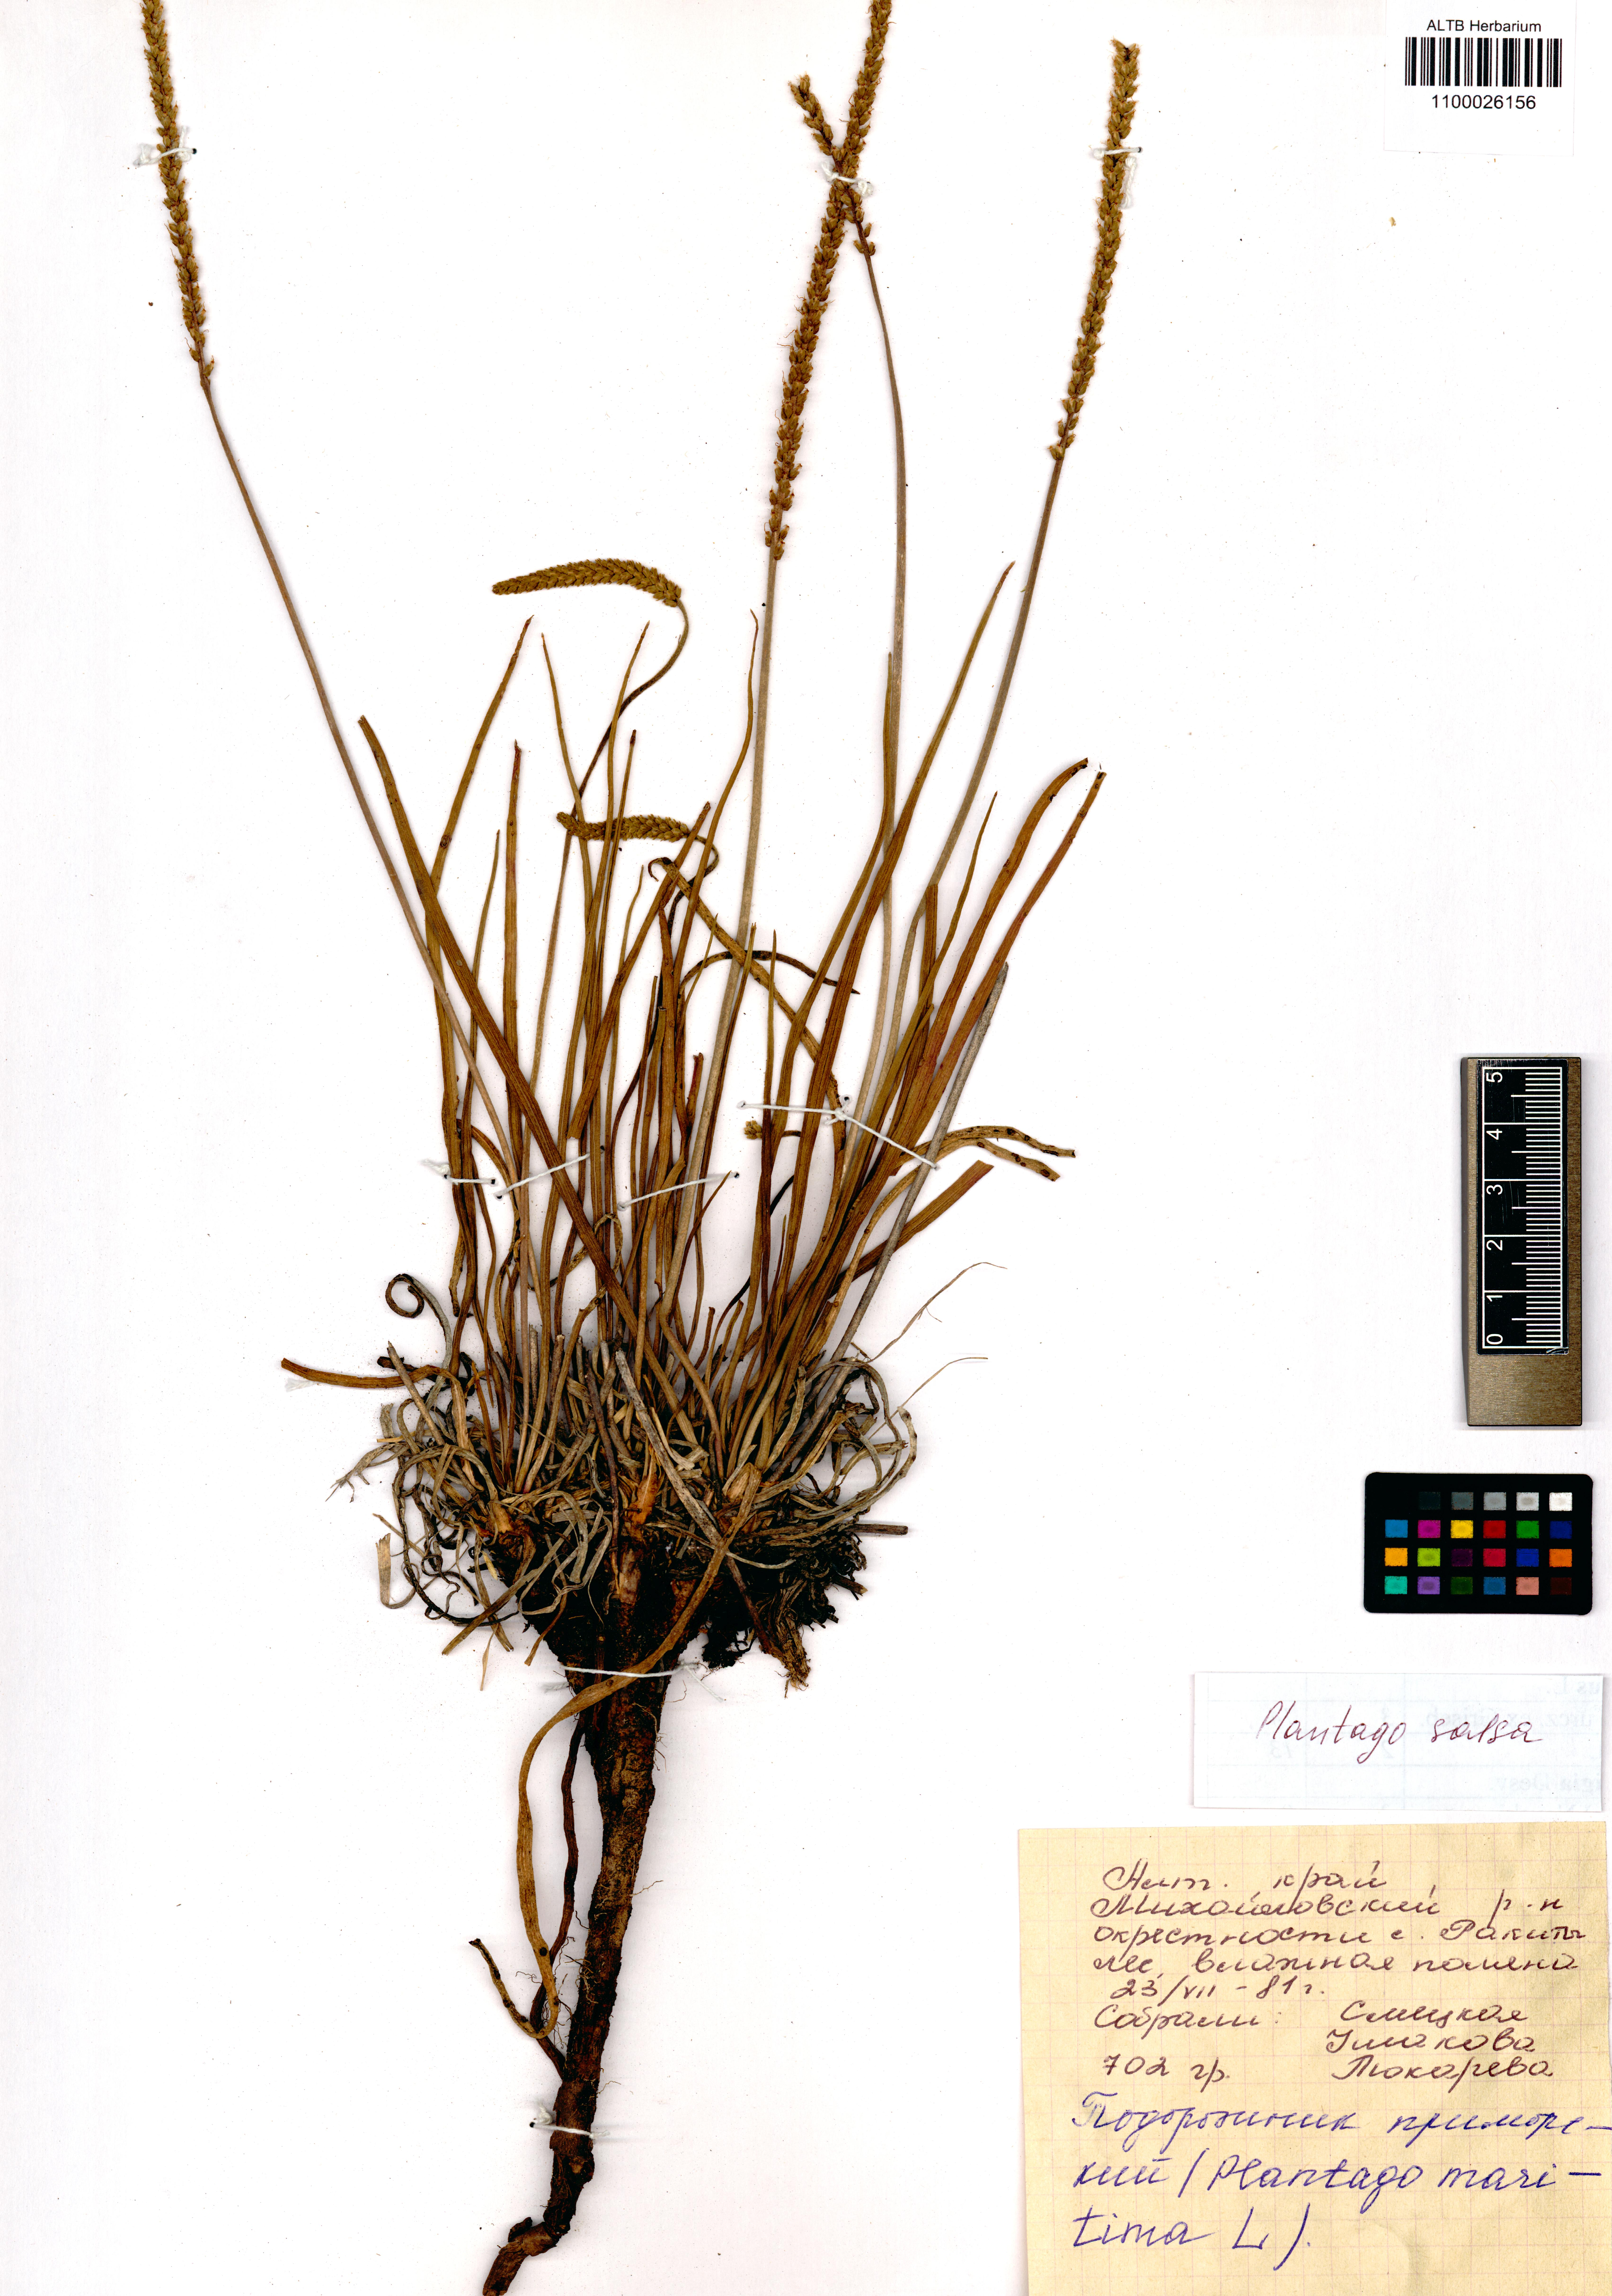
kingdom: Plantae
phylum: Tracheophyta
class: Magnoliopsida
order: Lamiales
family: Plantaginaceae
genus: Plantago
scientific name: Plantago salsa
